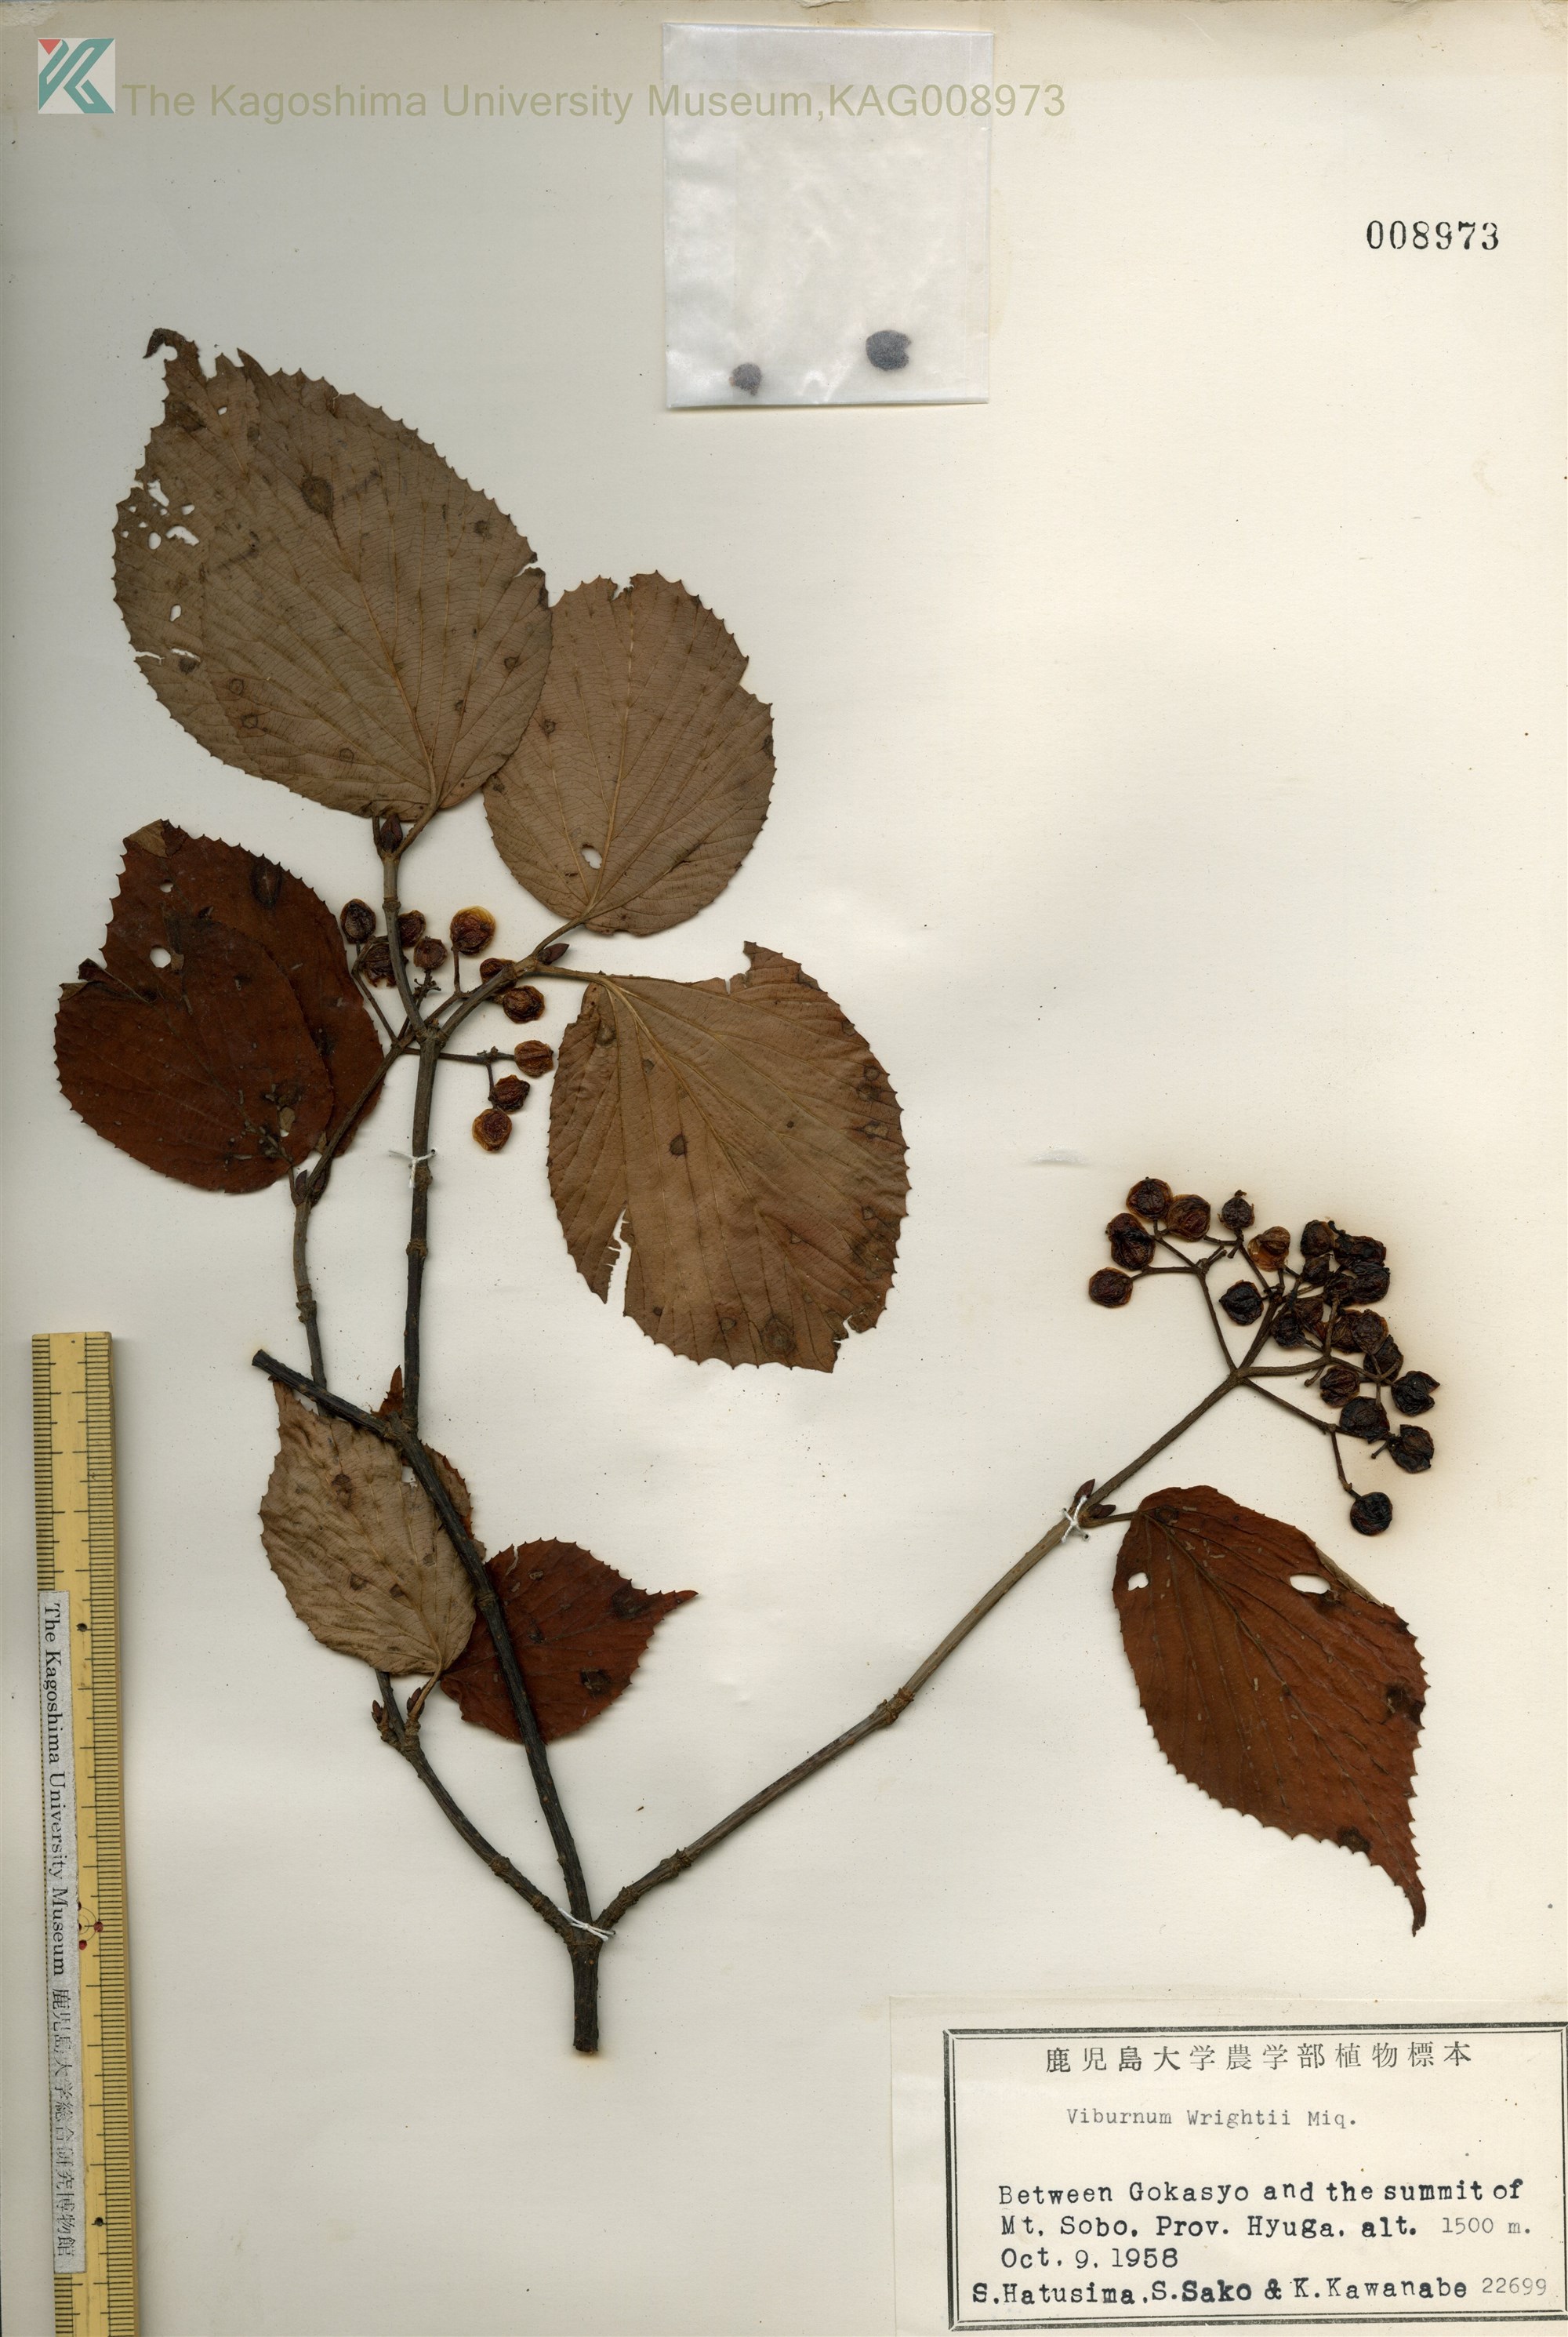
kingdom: Plantae
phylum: Tracheophyta
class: Magnoliopsida
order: Dipsacales
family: Viburnaceae
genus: Viburnum
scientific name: Viburnum wrightii
